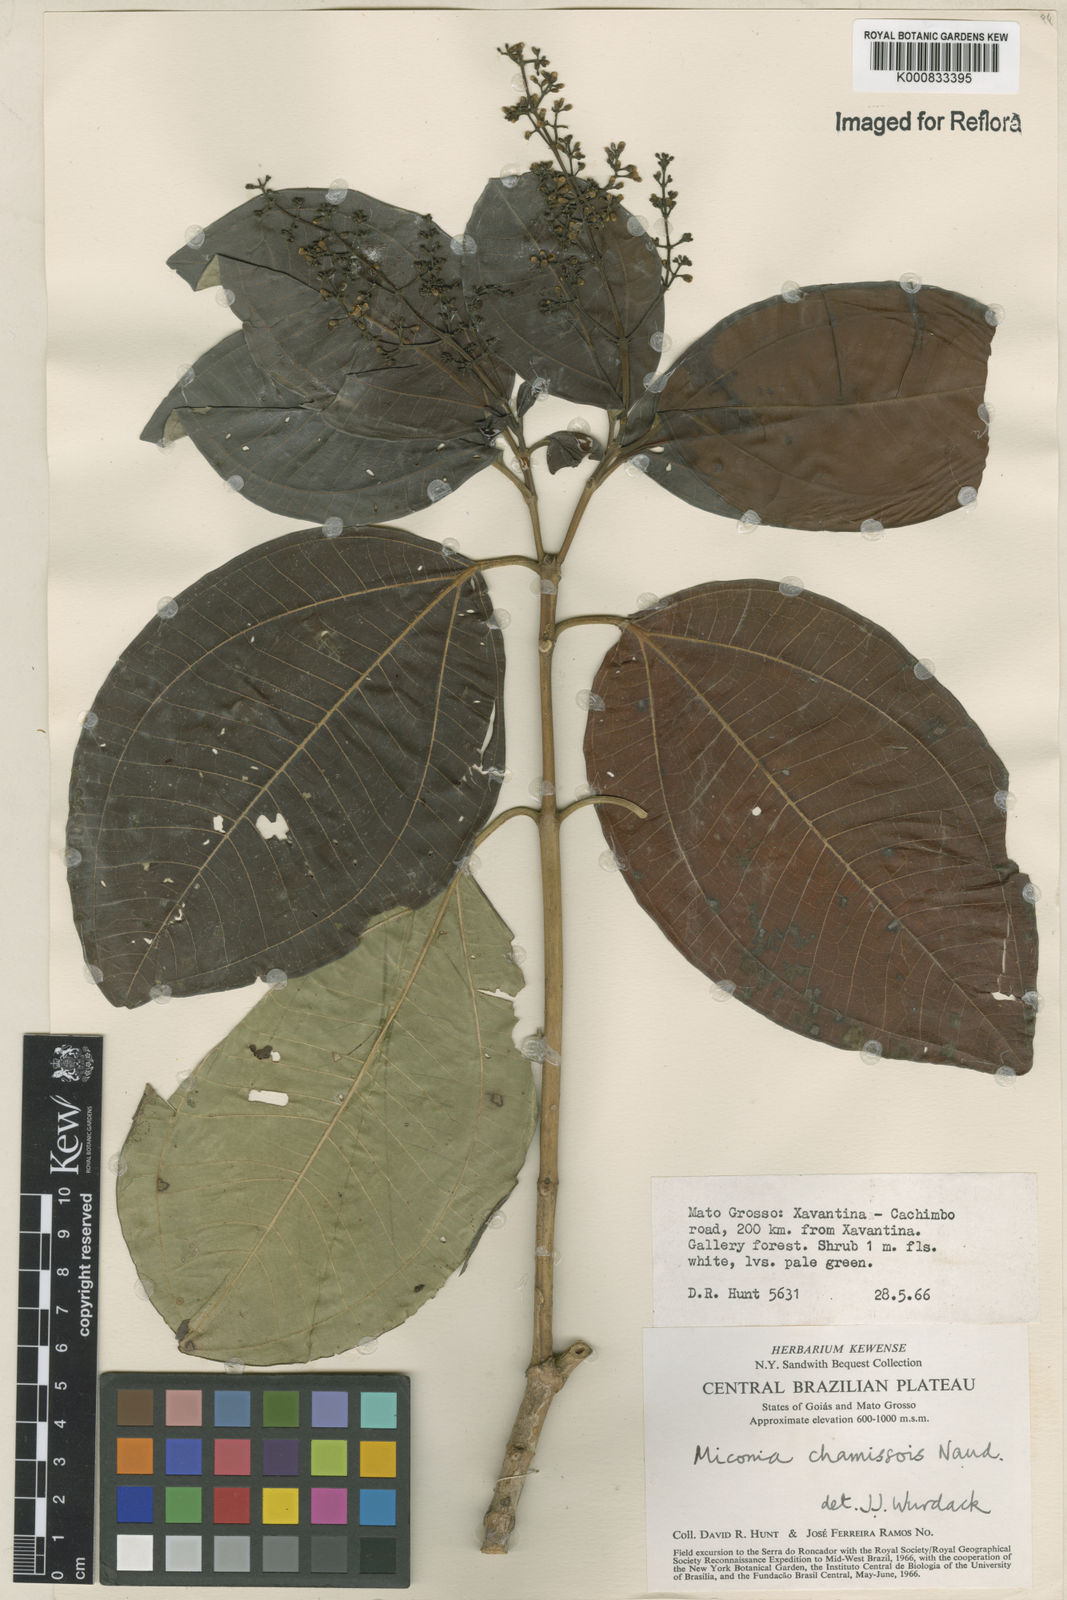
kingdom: Plantae
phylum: Tracheophyta
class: Magnoliopsida
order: Myrtales
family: Melastomataceae
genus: Miconia
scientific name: Miconia chamissois
